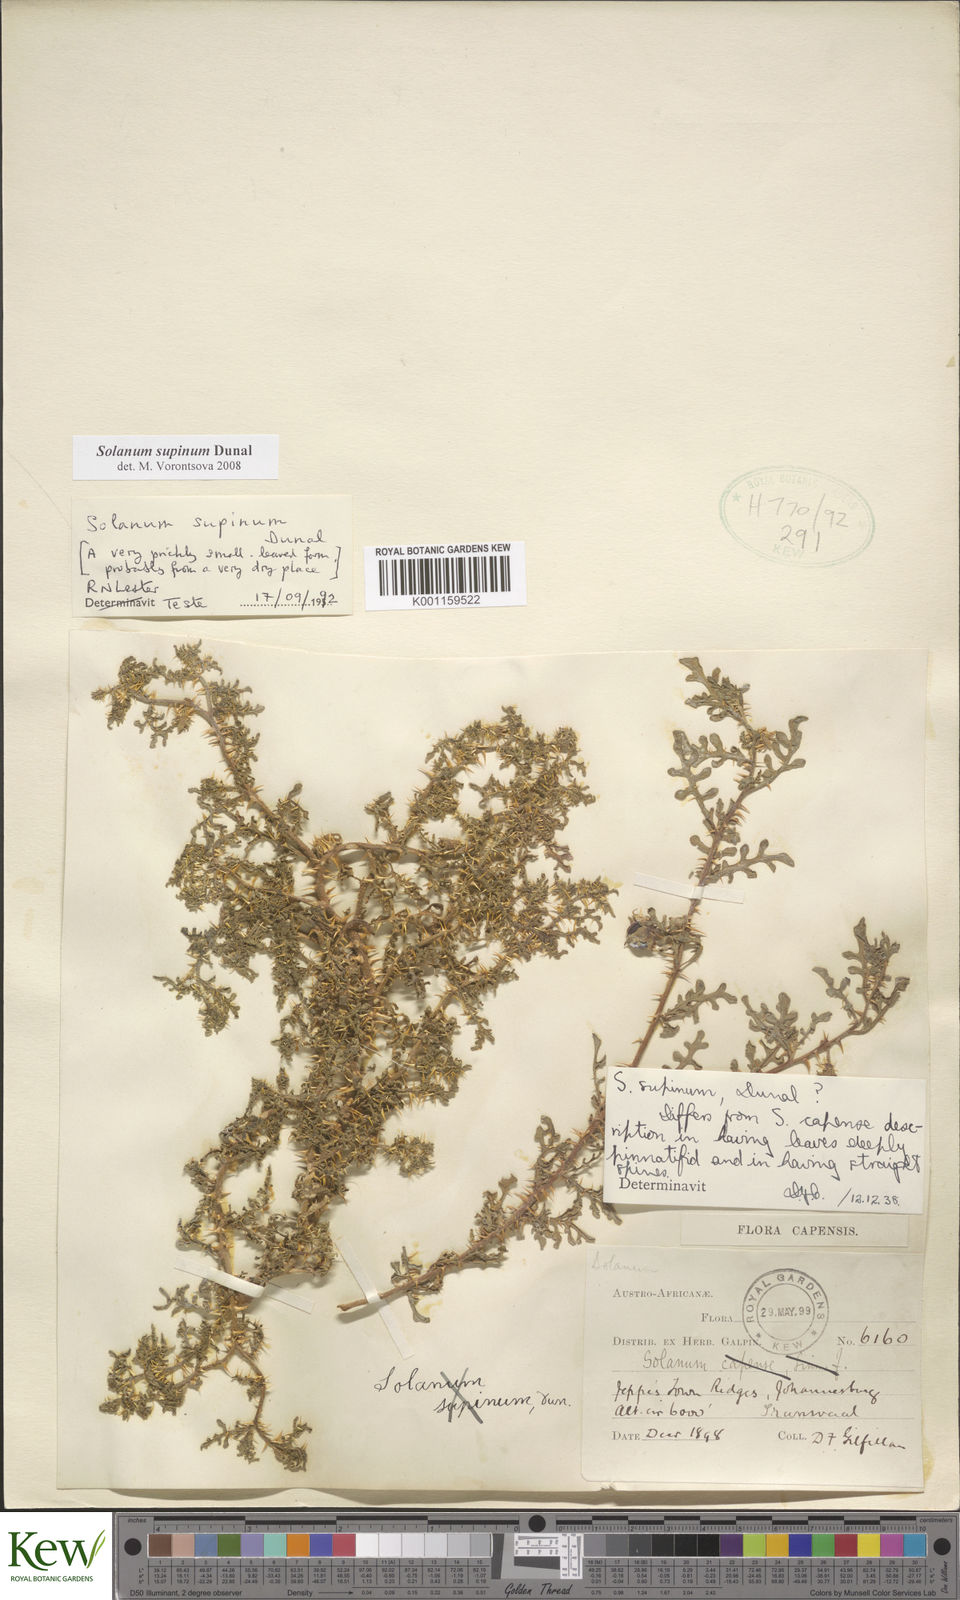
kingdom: Plantae
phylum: Tracheophyta
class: Magnoliopsida
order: Solanales
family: Solanaceae
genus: Solanum
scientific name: Solanum supinum
